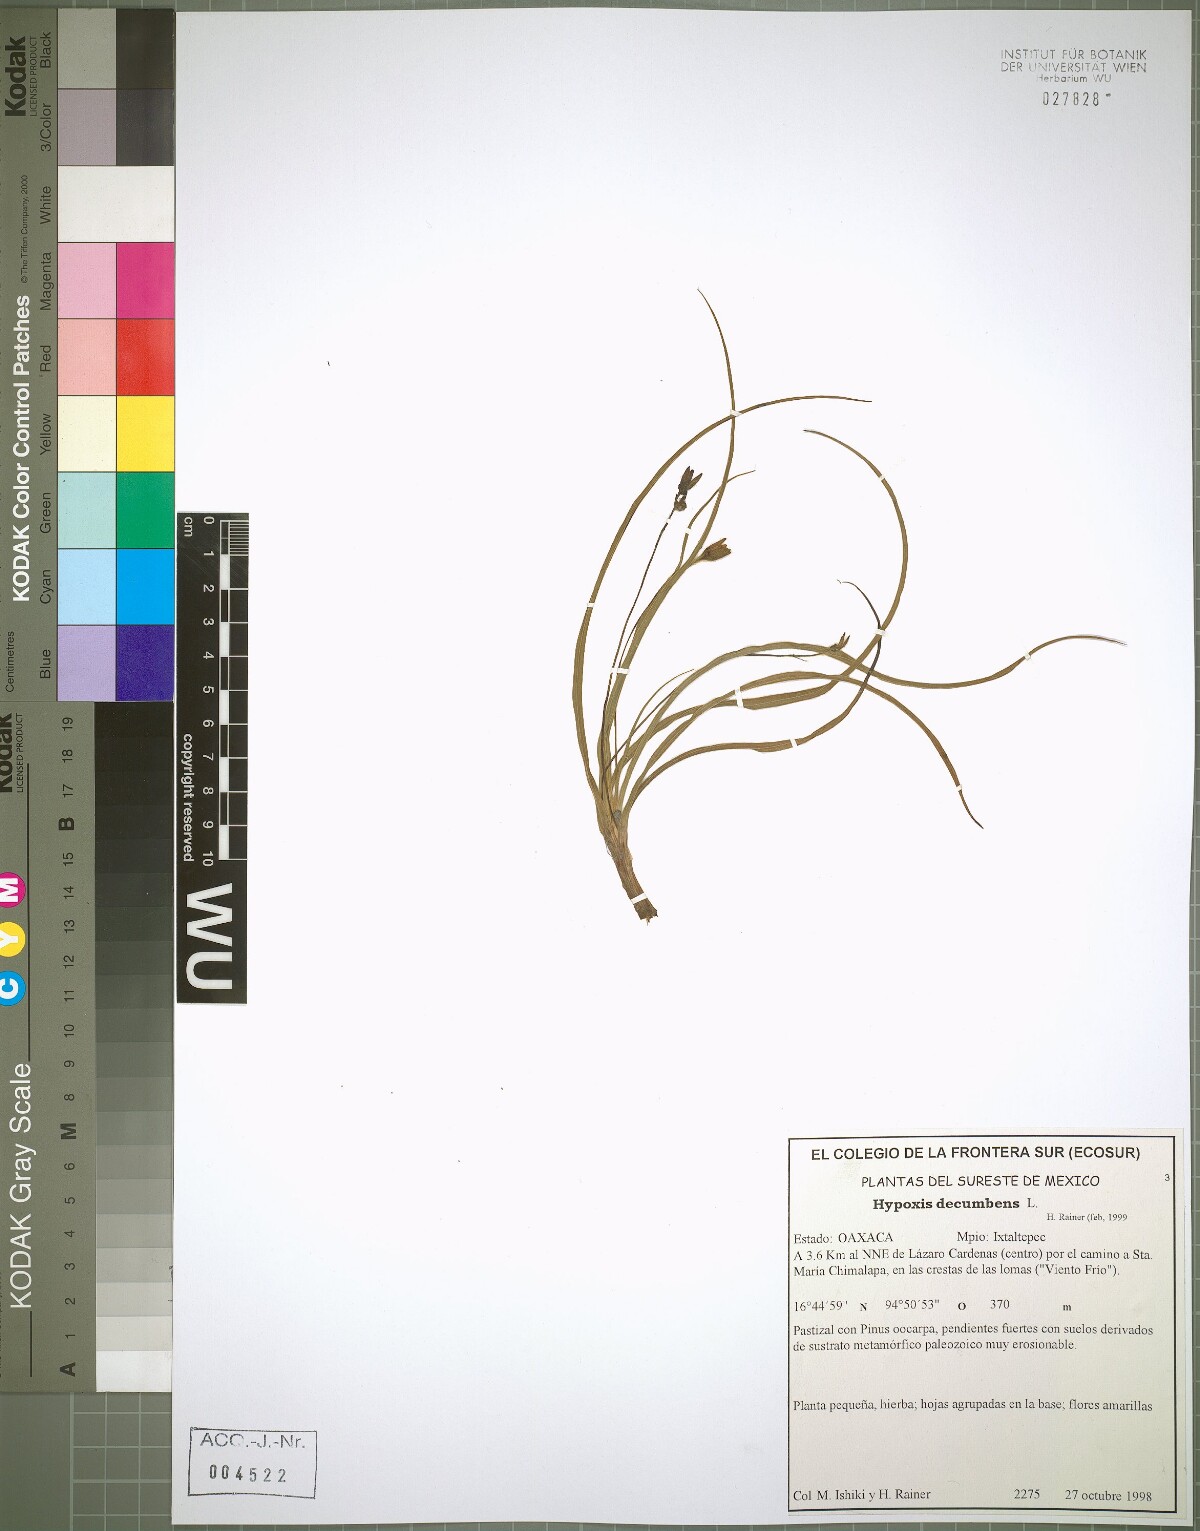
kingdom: Plantae
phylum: Tracheophyta
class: Liliopsida
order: Asparagales
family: Hypoxidaceae
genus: Hypoxis
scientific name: Hypoxis decumbens
